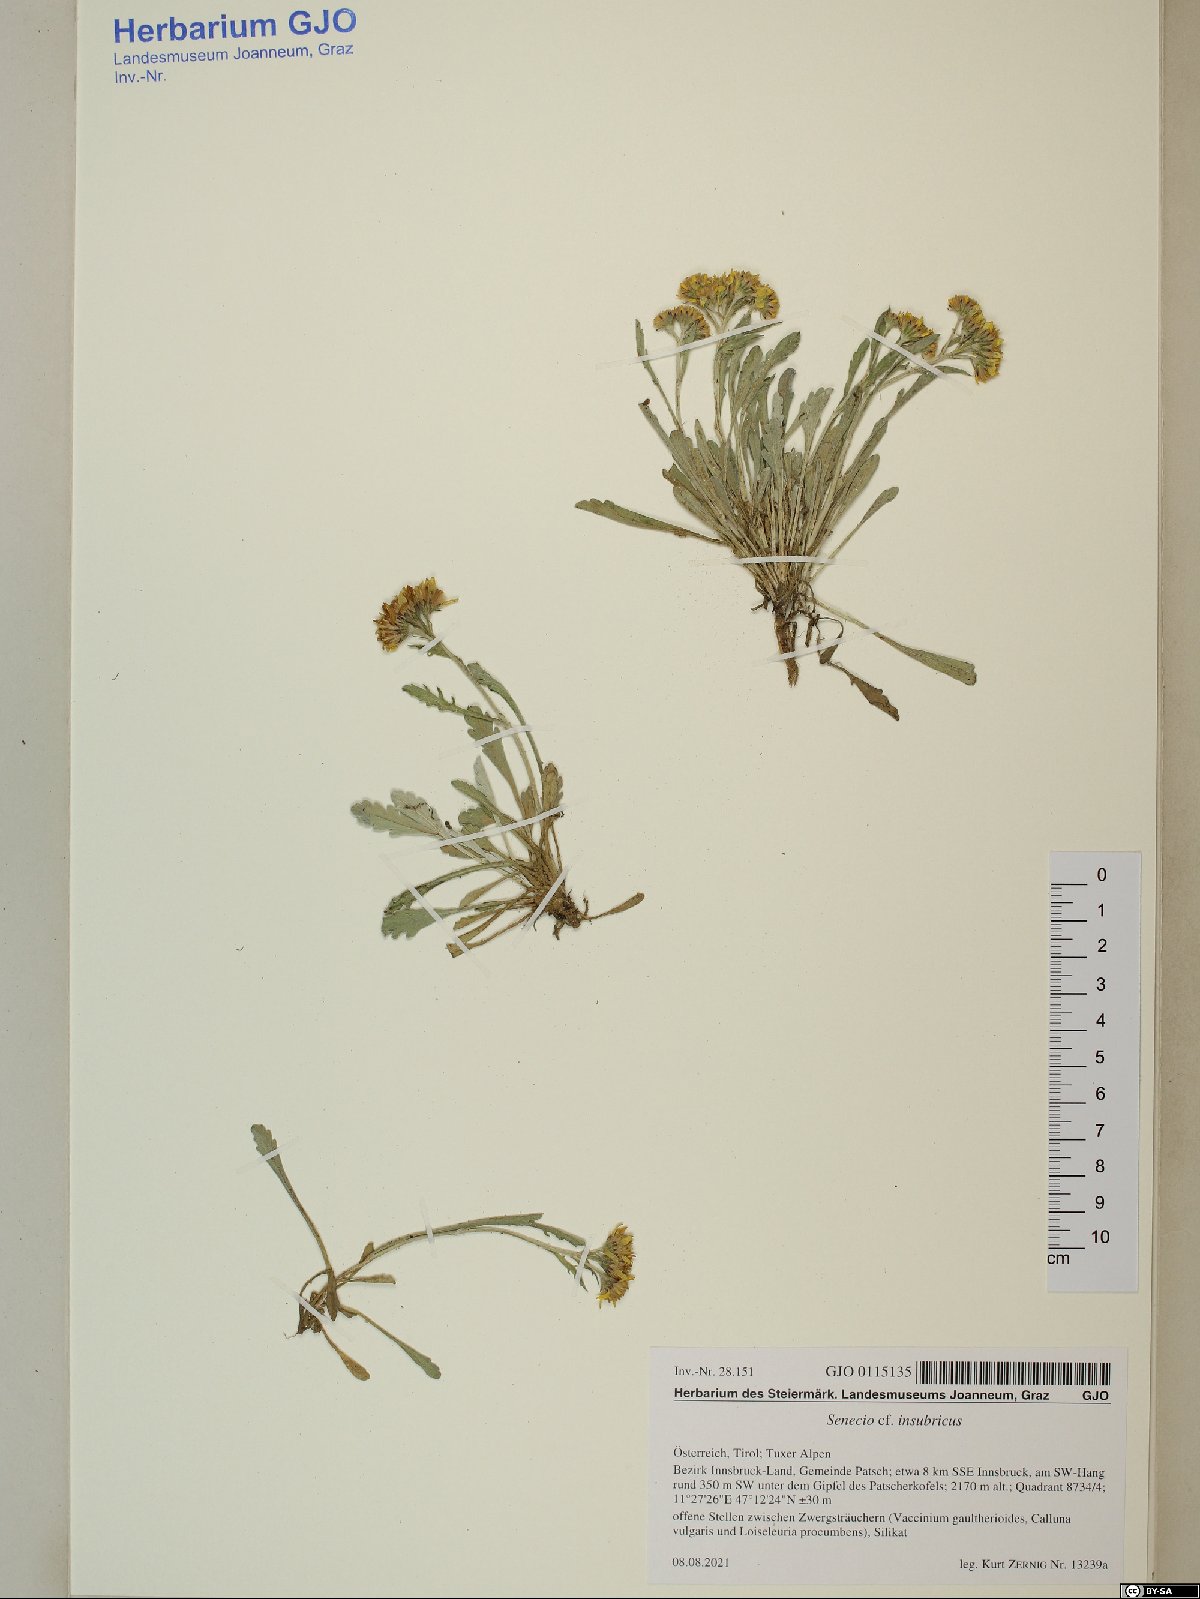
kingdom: Plantae
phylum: Tracheophyta
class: Magnoliopsida
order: Asterales
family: Asteraceae
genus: Jacobaea
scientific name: Jacobaea insubrica
